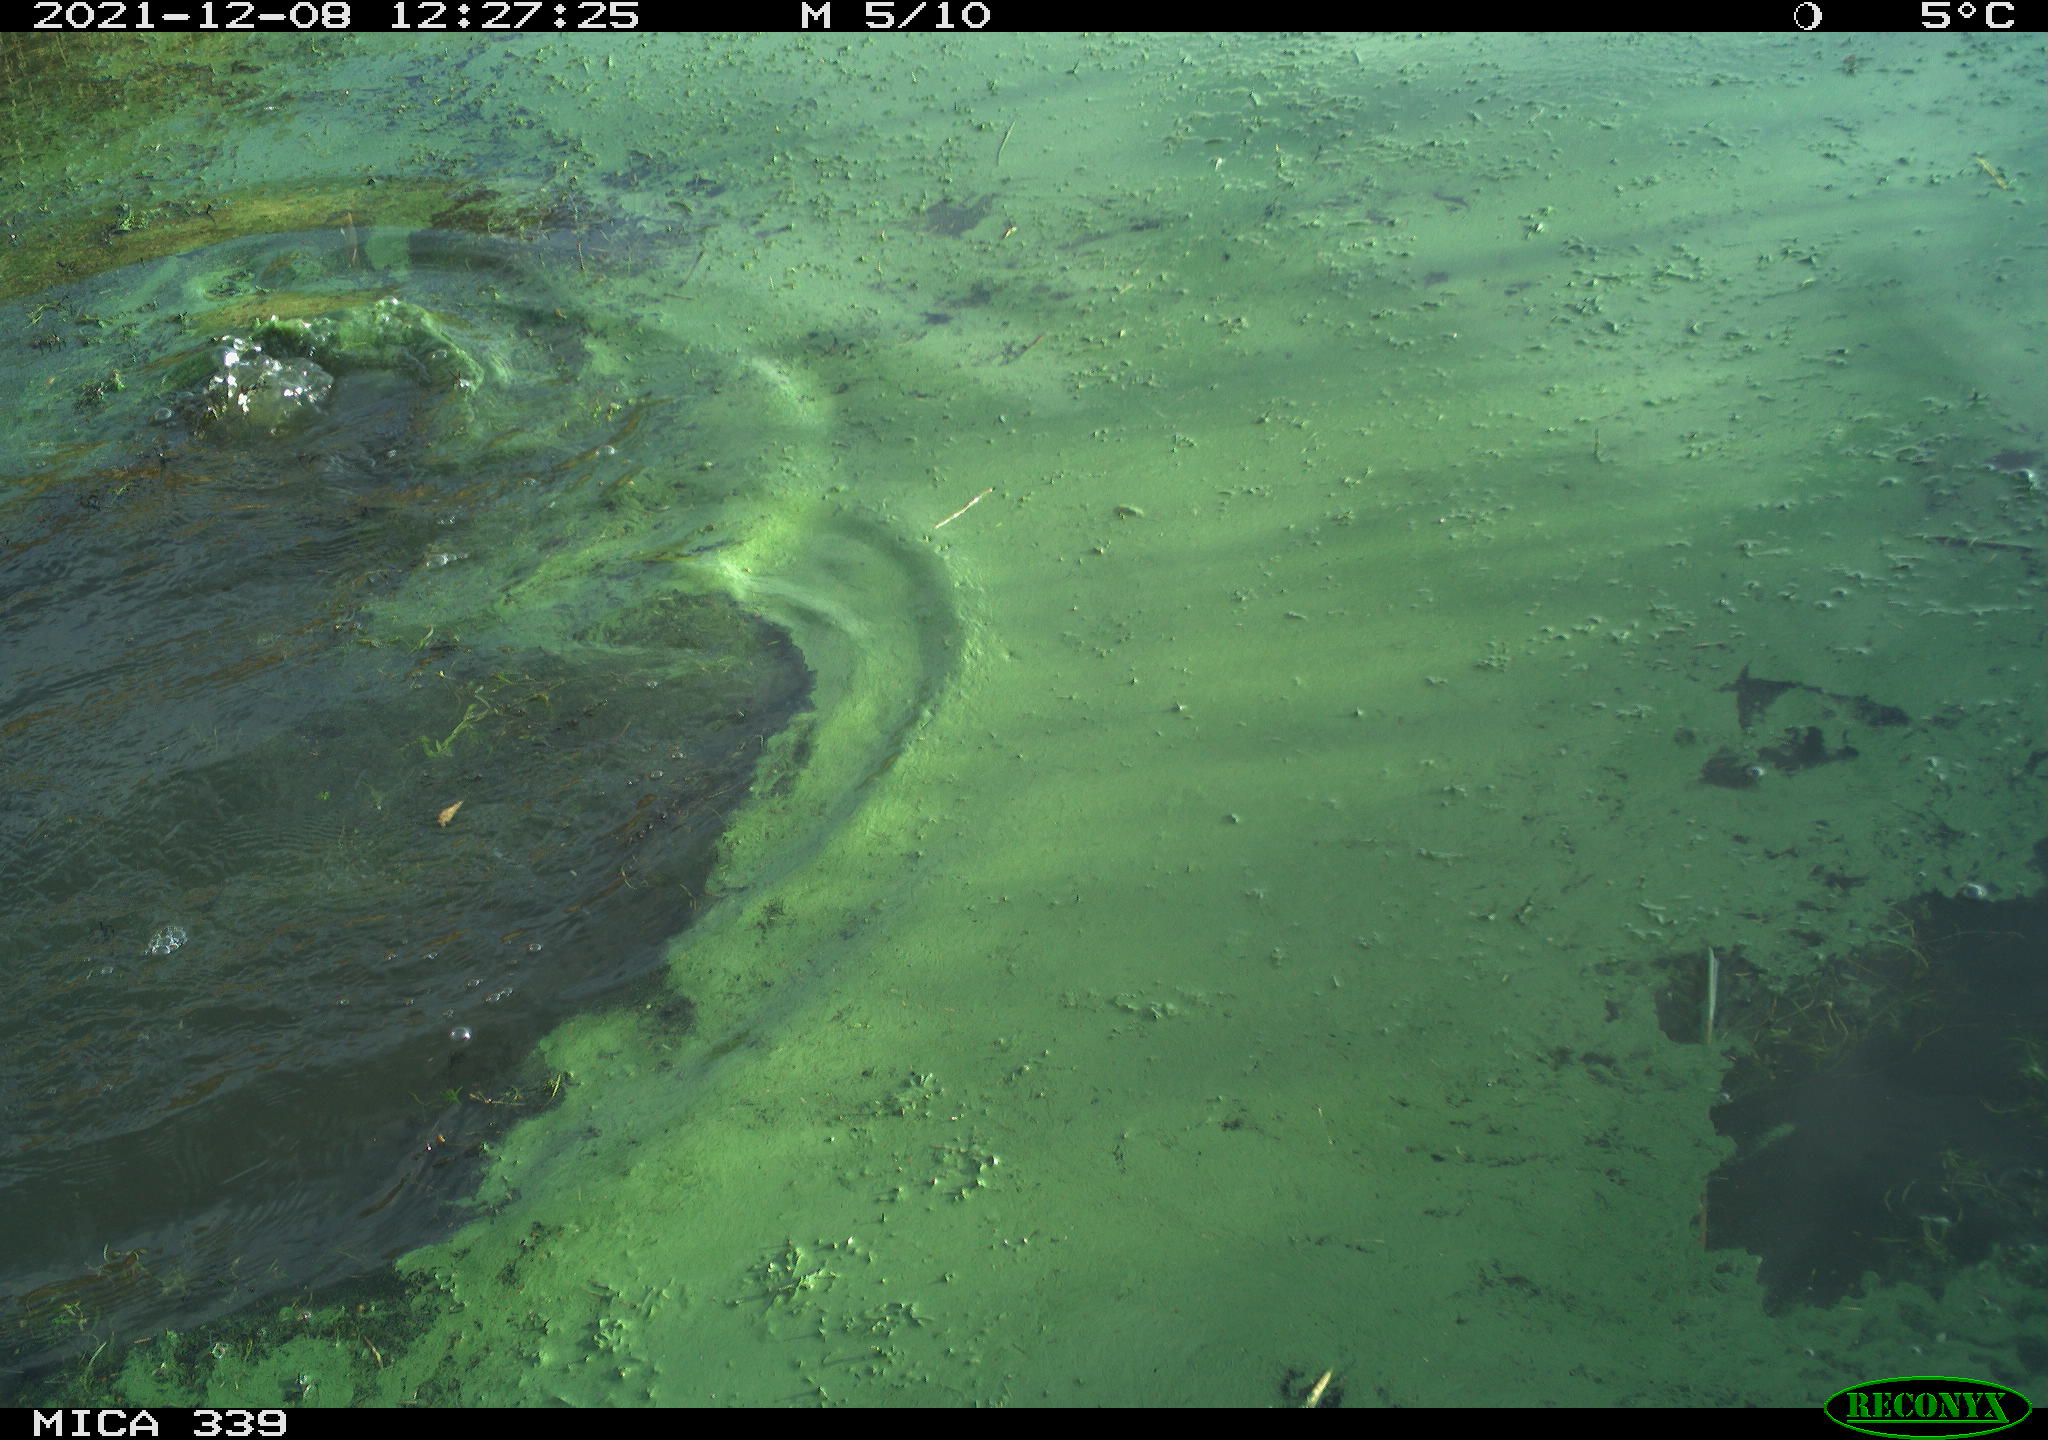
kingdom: Animalia
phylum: Chordata
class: Aves
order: Suliformes
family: Phalacrocoracidae
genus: Phalacrocorax
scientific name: Phalacrocorax carbo
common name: Great cormorant
